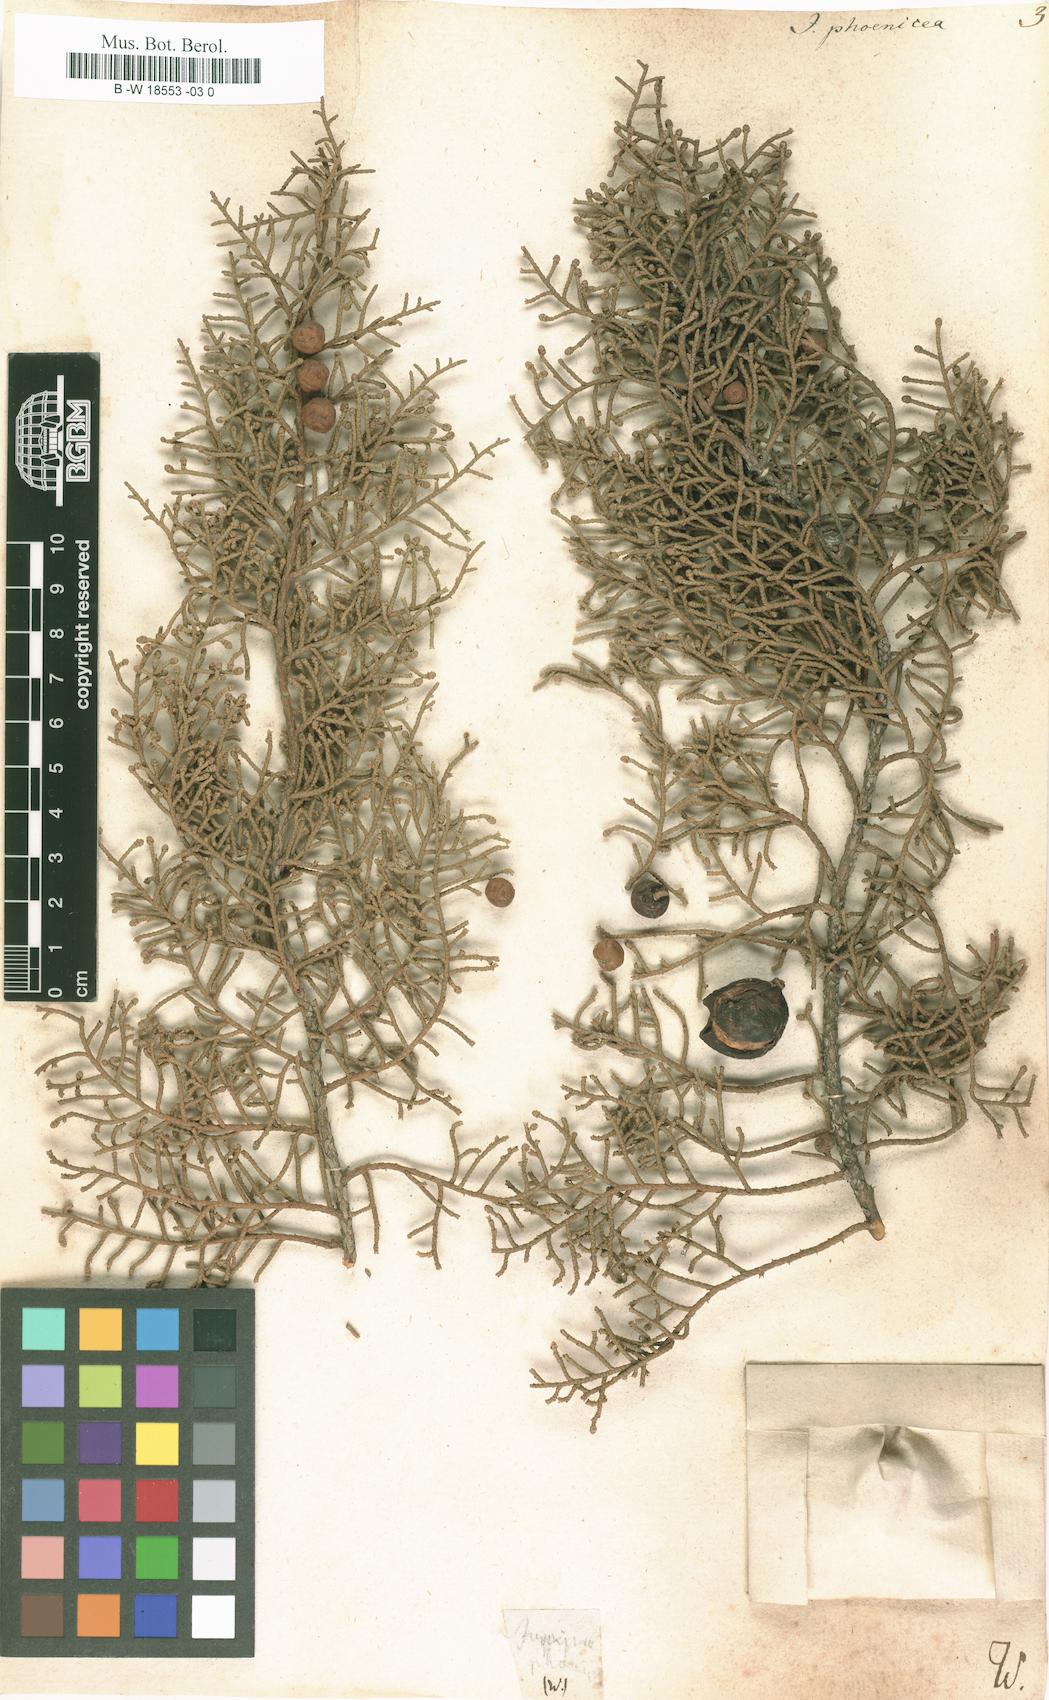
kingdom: Plantae
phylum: Tracheophyta
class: Pinopsida
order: Pinales
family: Cupressaceae
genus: Juniperus
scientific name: Juniperus phoenicea
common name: Phoenician juniper
